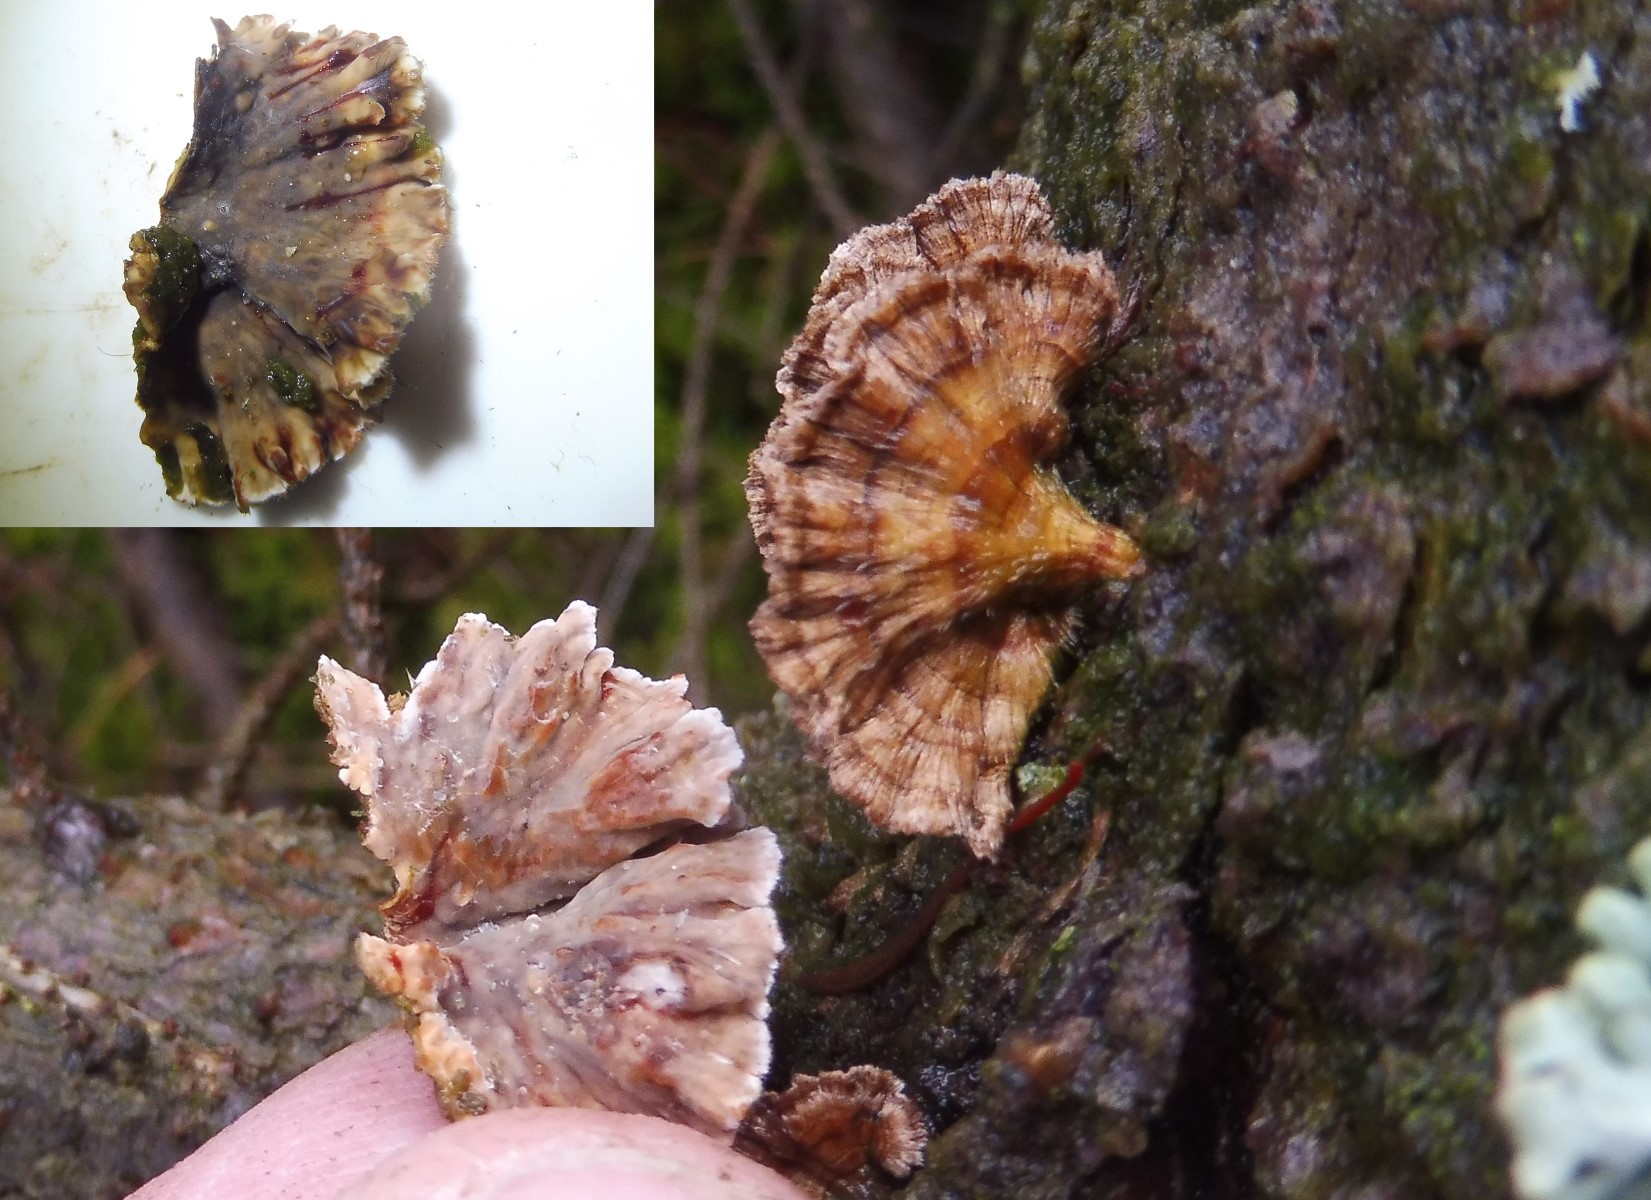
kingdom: Fungi
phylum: Basidiomycota
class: Agaricomycetes
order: Russulales
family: Stereaceae
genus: Stereum
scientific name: Stereum sanguinolentum
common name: blødende lædersvamp
